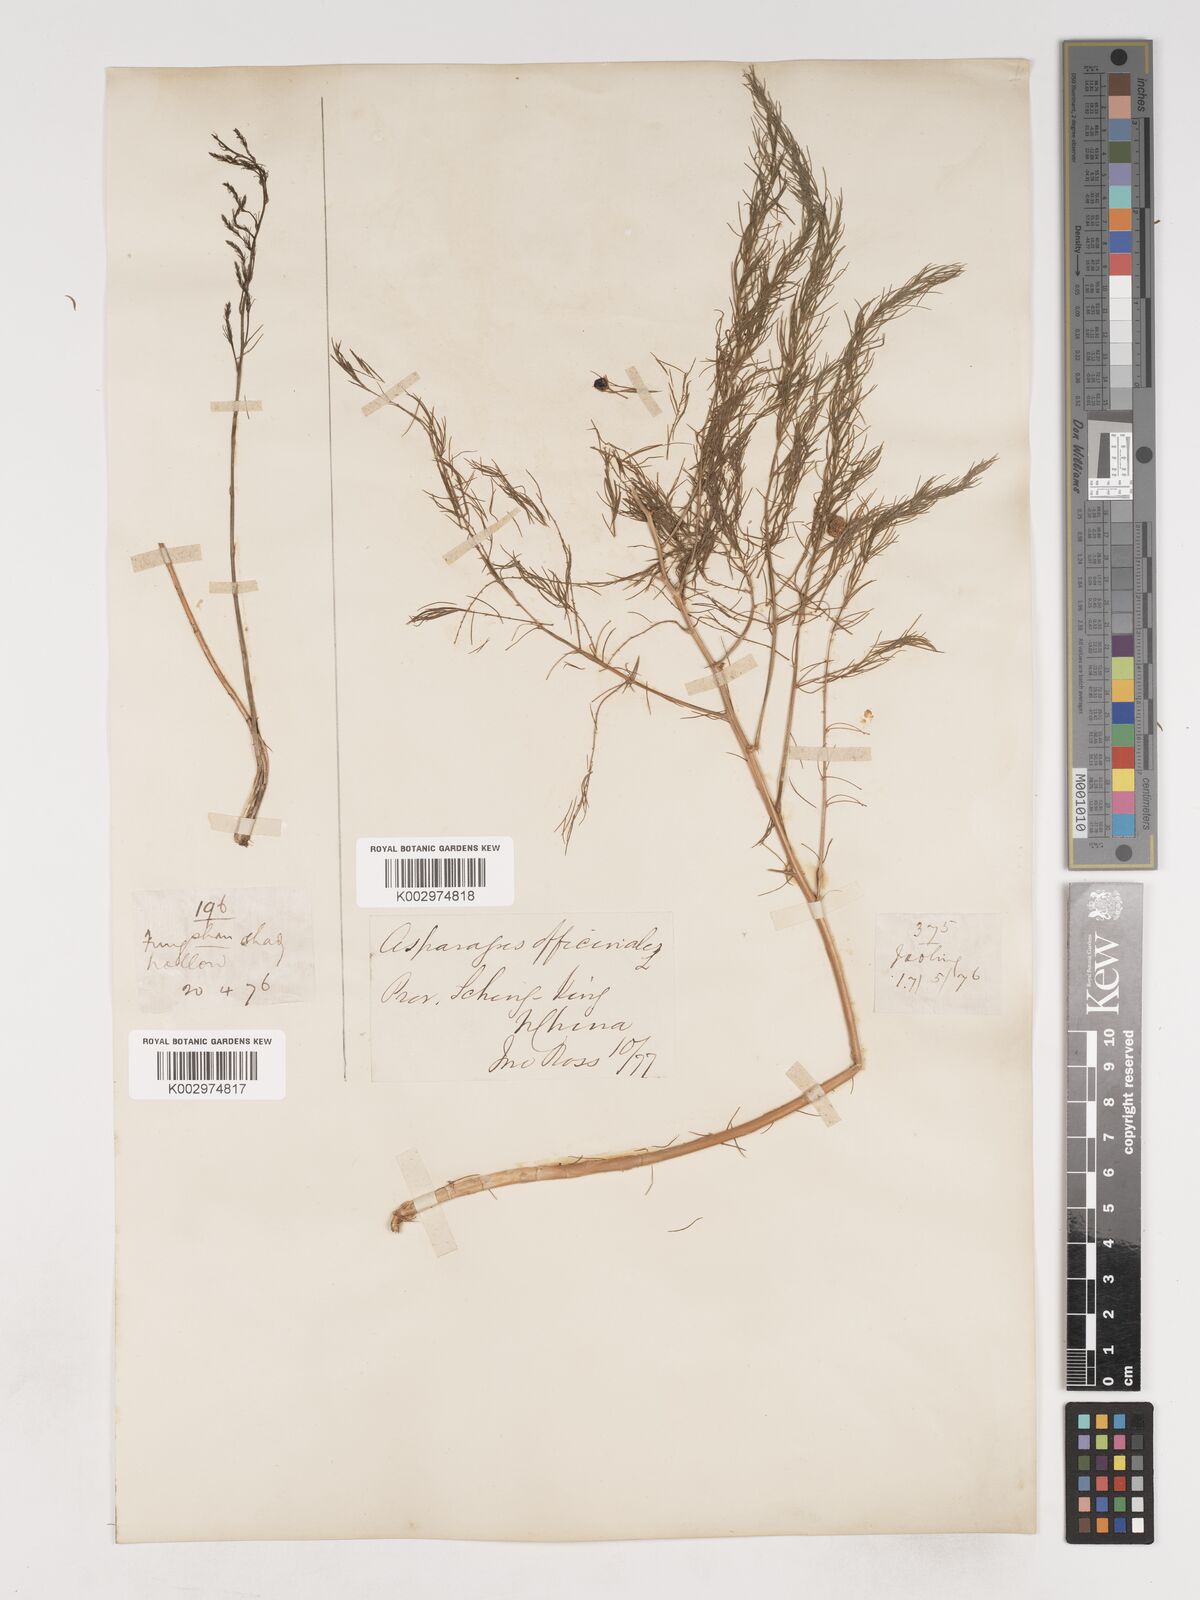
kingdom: Plantae
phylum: Tracheophyta
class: Liliopsida
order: Asparagales
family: Asparagaceae
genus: Asparagus
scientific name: Asparagus oligoclonos
